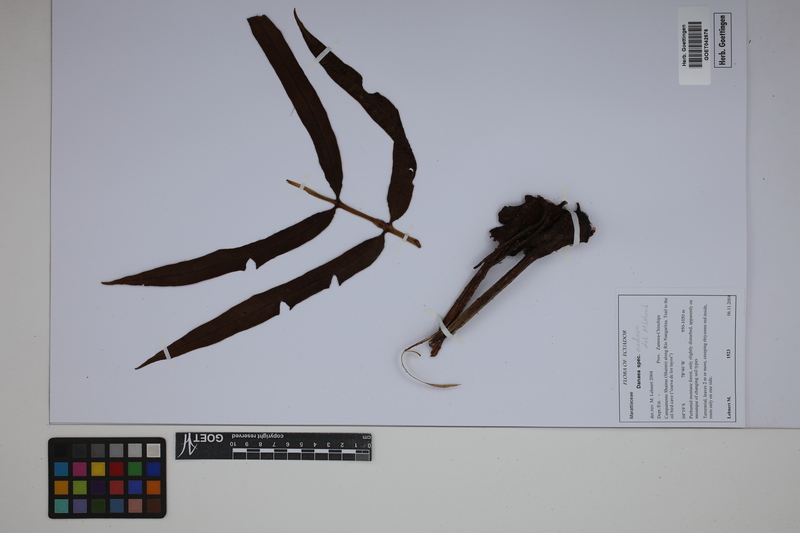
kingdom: Plantae
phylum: Tracheophyta
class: Polypodiopsida
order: Marattiales
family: Marattiaceae
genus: Danaea
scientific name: Danaea nodosa
